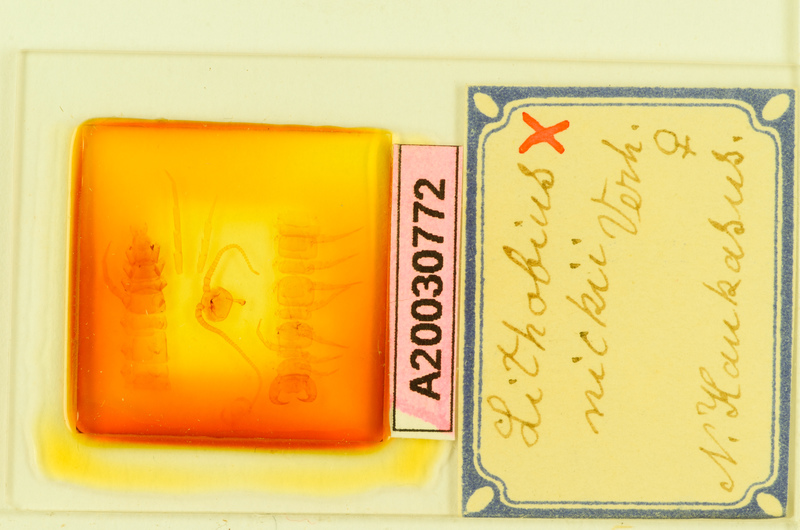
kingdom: Animalia
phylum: Arthropoda
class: Chilopoda
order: Lithobiomorpha
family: Lithobiidae
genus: Lithobius
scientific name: Lithobius nickii
